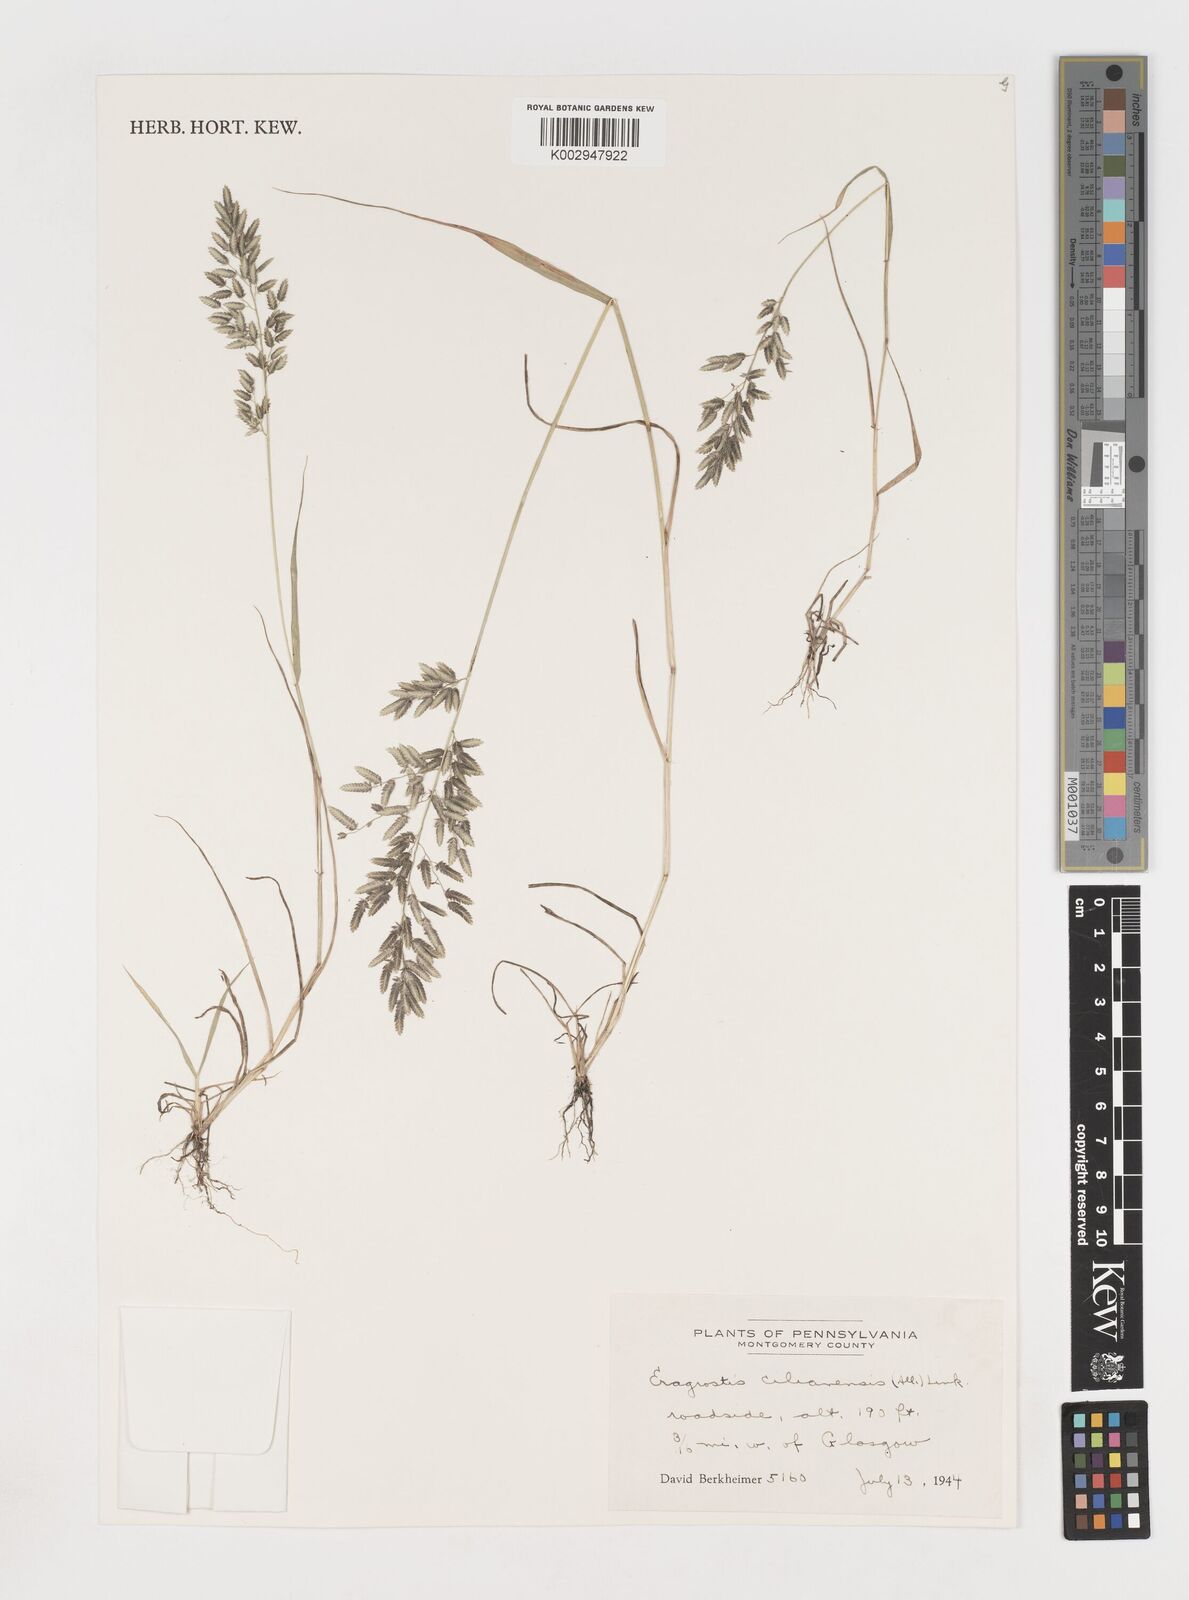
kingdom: Plantae
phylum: Tracheophyta
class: Liliopsida
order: Poales
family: Poaceae
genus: Eragrostis
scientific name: Eragrostis
